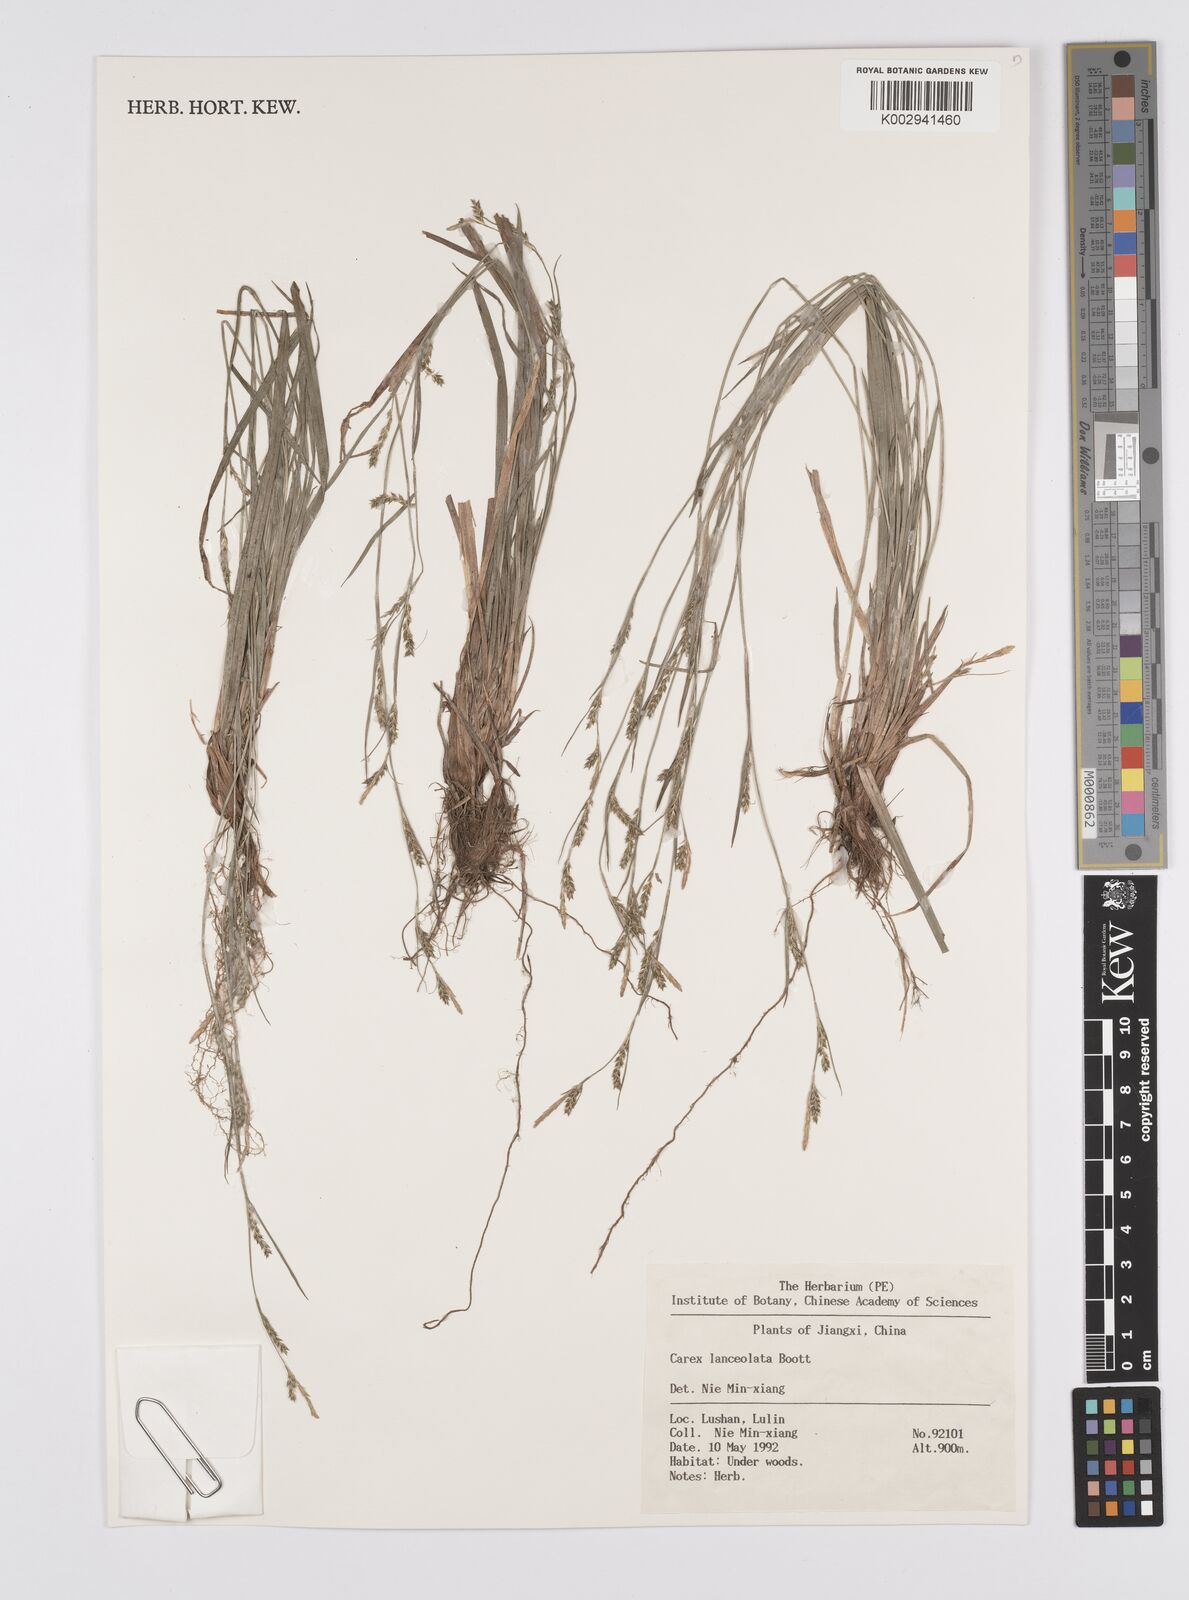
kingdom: Plantae
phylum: Tracheophyta
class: Liliopsida
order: Poales
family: Cyperaceae
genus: Carex
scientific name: Carex lanceolata
